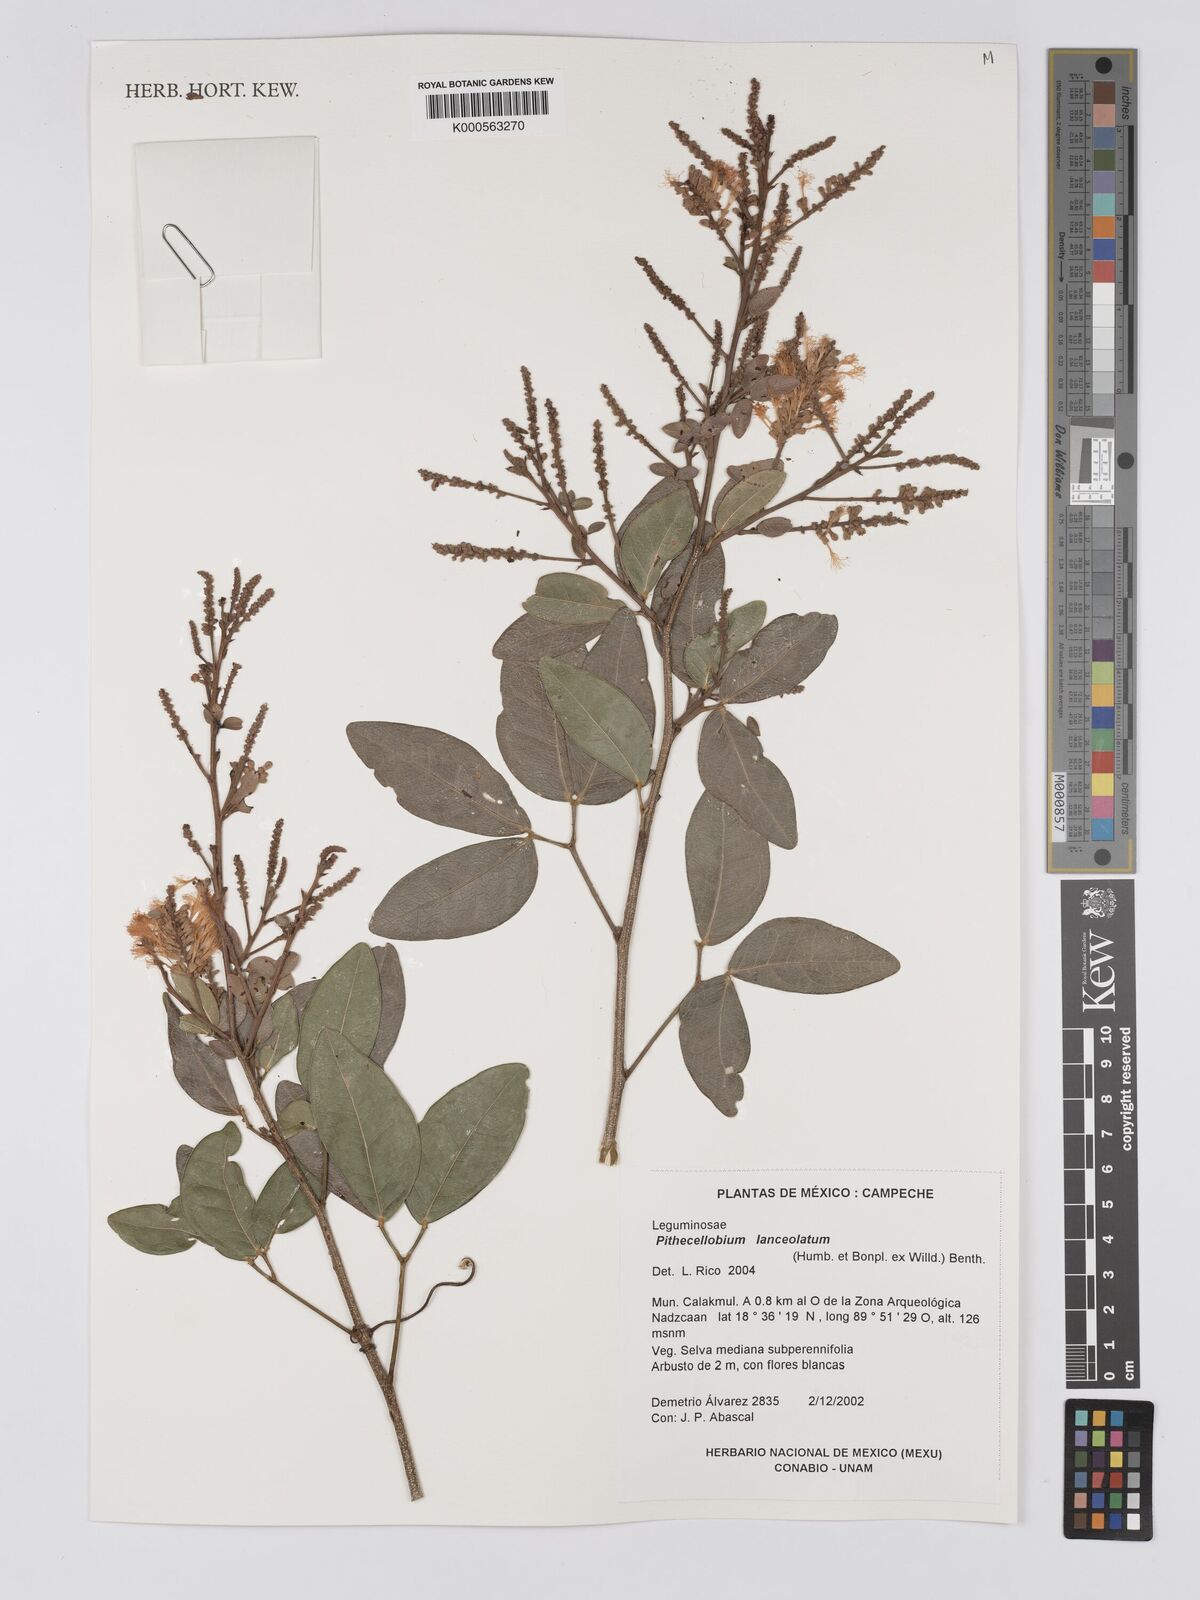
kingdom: Plantae
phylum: Tracheophyta
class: Magnoliopsida
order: Fabales
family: Fabaceae
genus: Pithecellobium
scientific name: Pithecellobium lanceolatum
